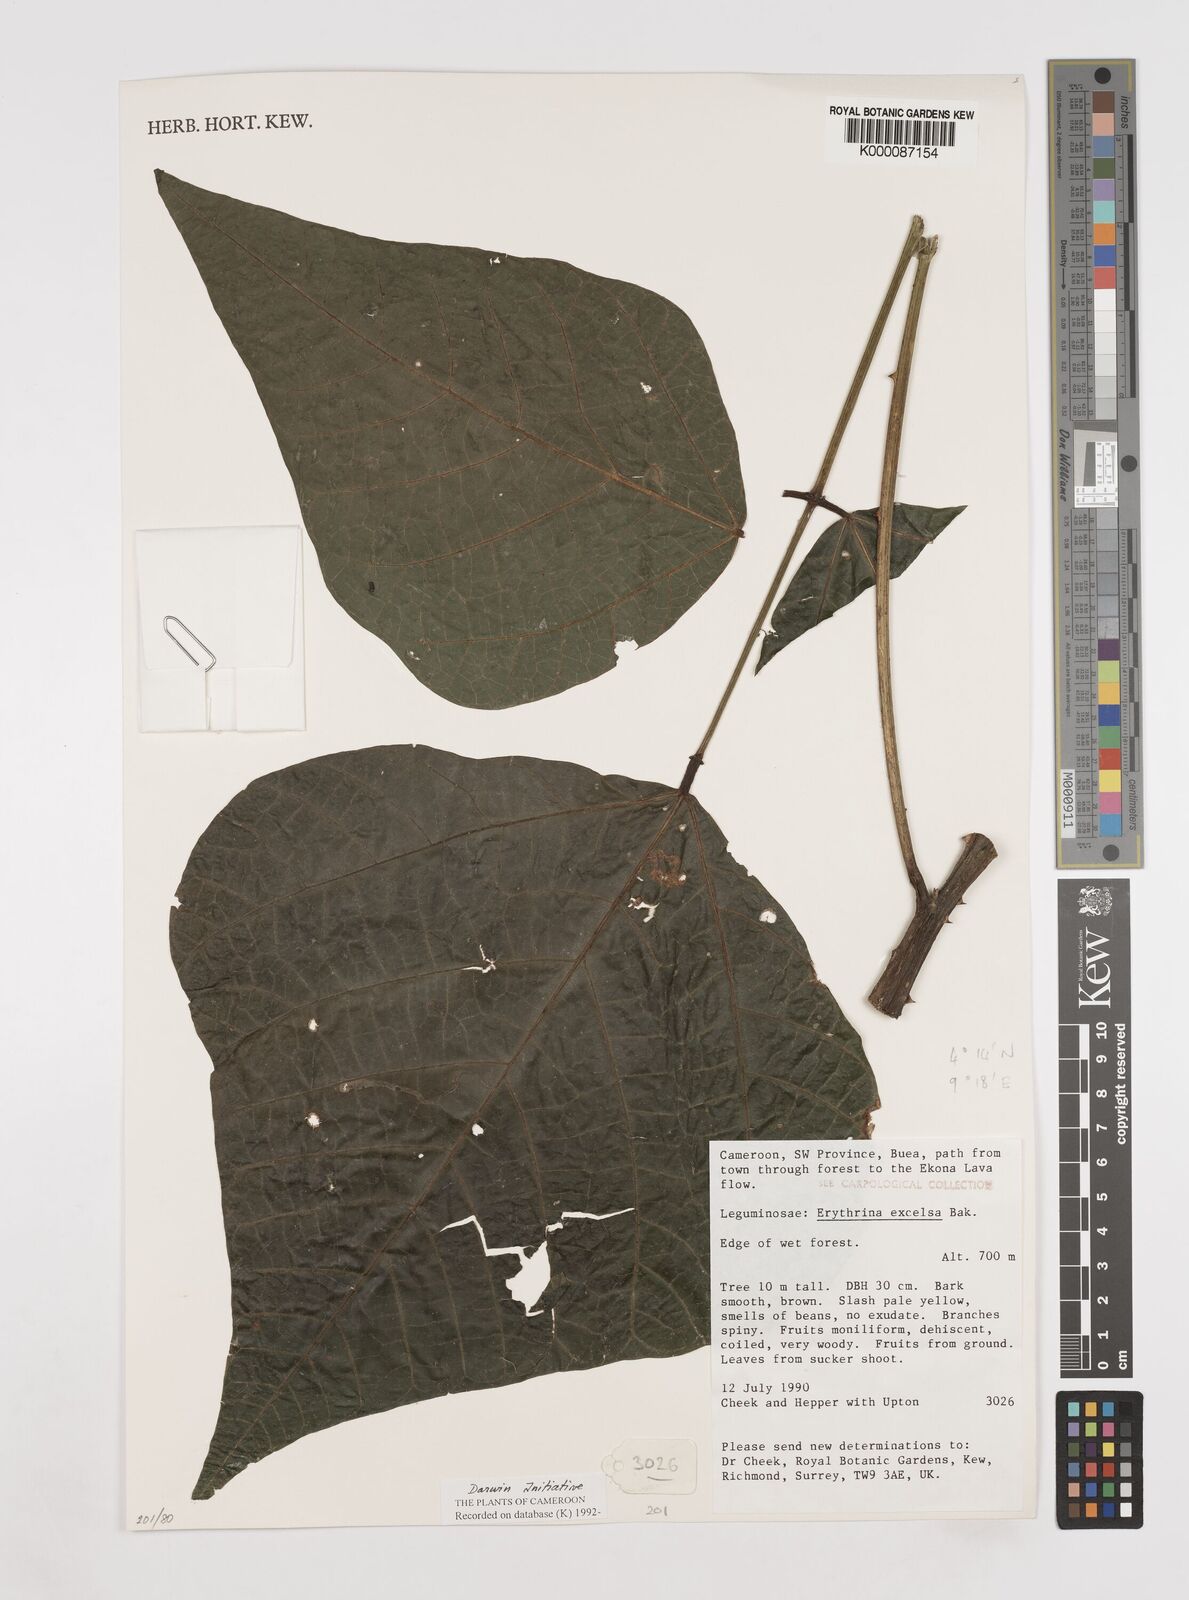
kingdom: Plantae
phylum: Tracheophyta
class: Magnoliopsida
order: Fabales
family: Fabaceae
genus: Erythrina
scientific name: Erythrina excelsa
